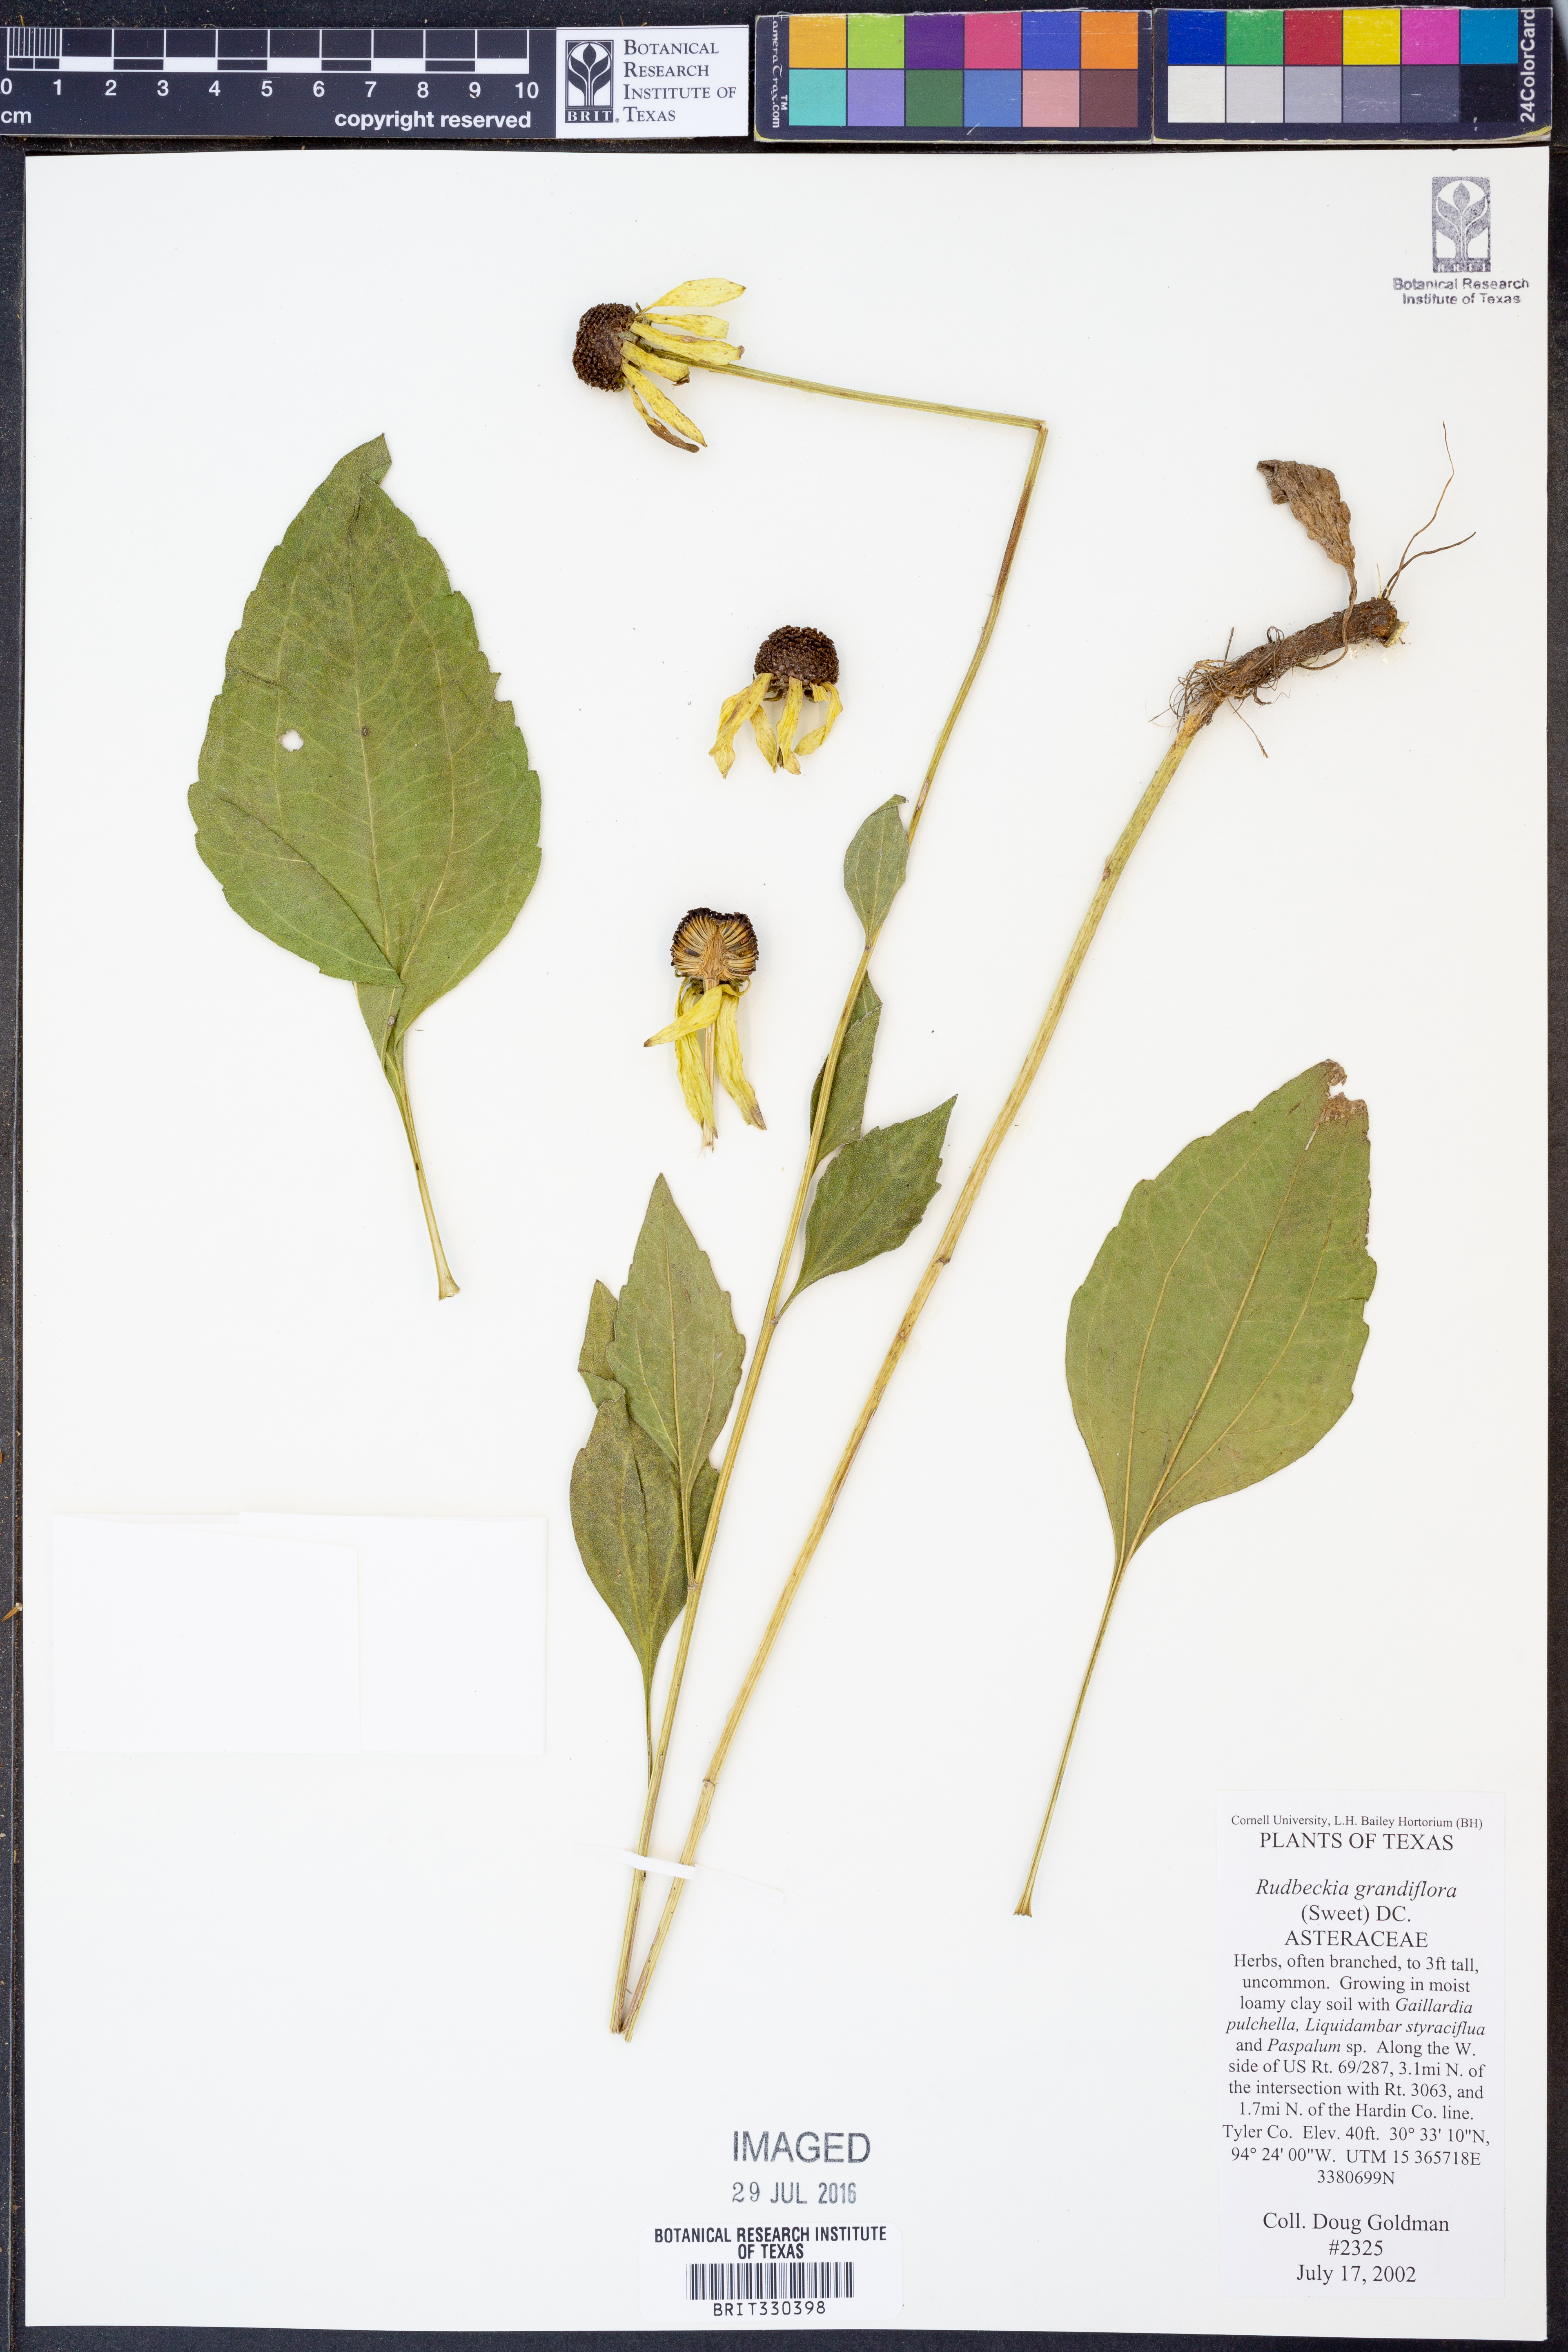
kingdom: Plantae
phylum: Tracheophyta
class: Magnoliopsida
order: Asterales
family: Asteraceae
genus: Rudbeckia
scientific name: Rudbeckia grandiflora
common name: Large-flowered coneflower
